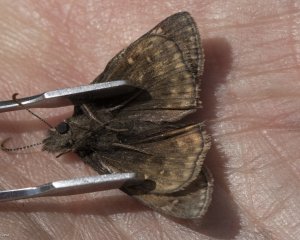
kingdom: Animalia
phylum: Arthropoda
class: Insecta
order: Lepidoptera
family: Hesperiidae
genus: Gesta
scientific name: Gesta
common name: Juvenal's Duskywing
